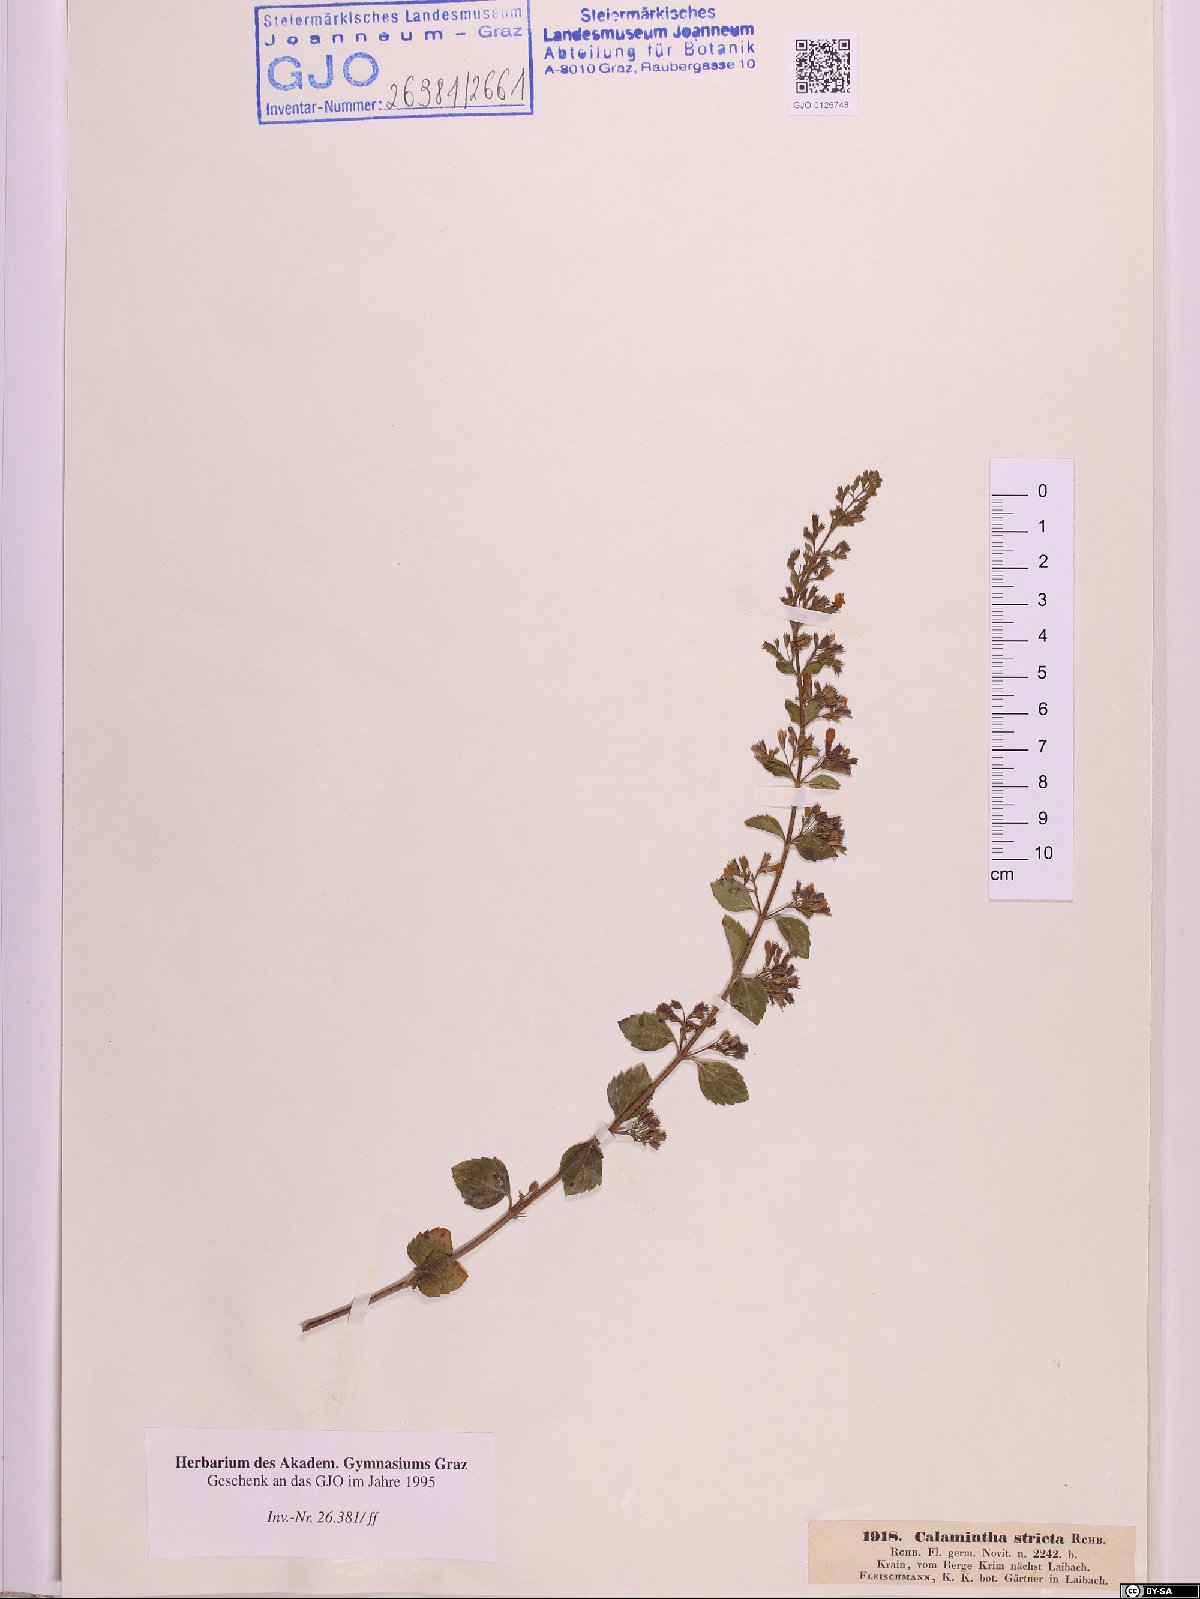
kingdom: Plantae
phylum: Tracheophyta
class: Magnoliopsida
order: Lamiales
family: Lamiaceae
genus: Clinopodium
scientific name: Clinopodium nepeta
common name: Lesser calamint
